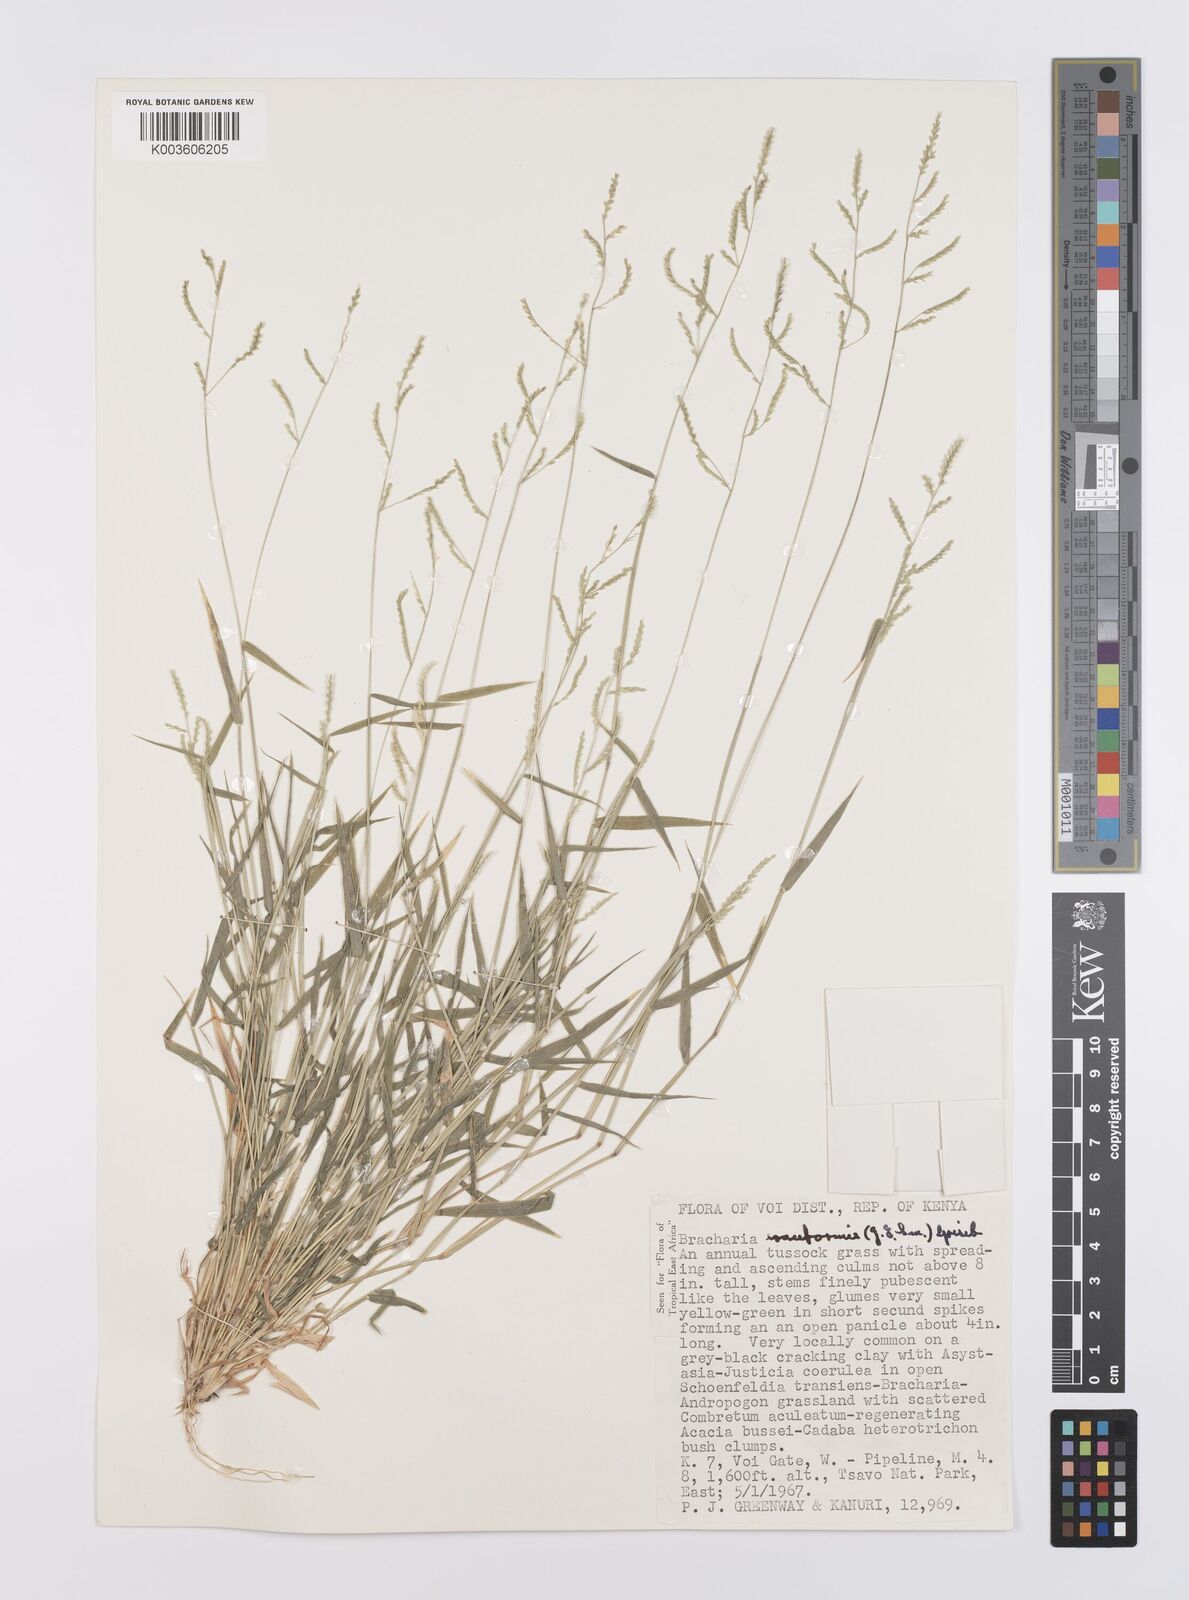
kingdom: Plantae
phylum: Tracheophyta
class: Liliopsida
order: Poales
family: Poaceae
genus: Moorochloa
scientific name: Moorochloa eruciformis
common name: Sweet signalgrass
